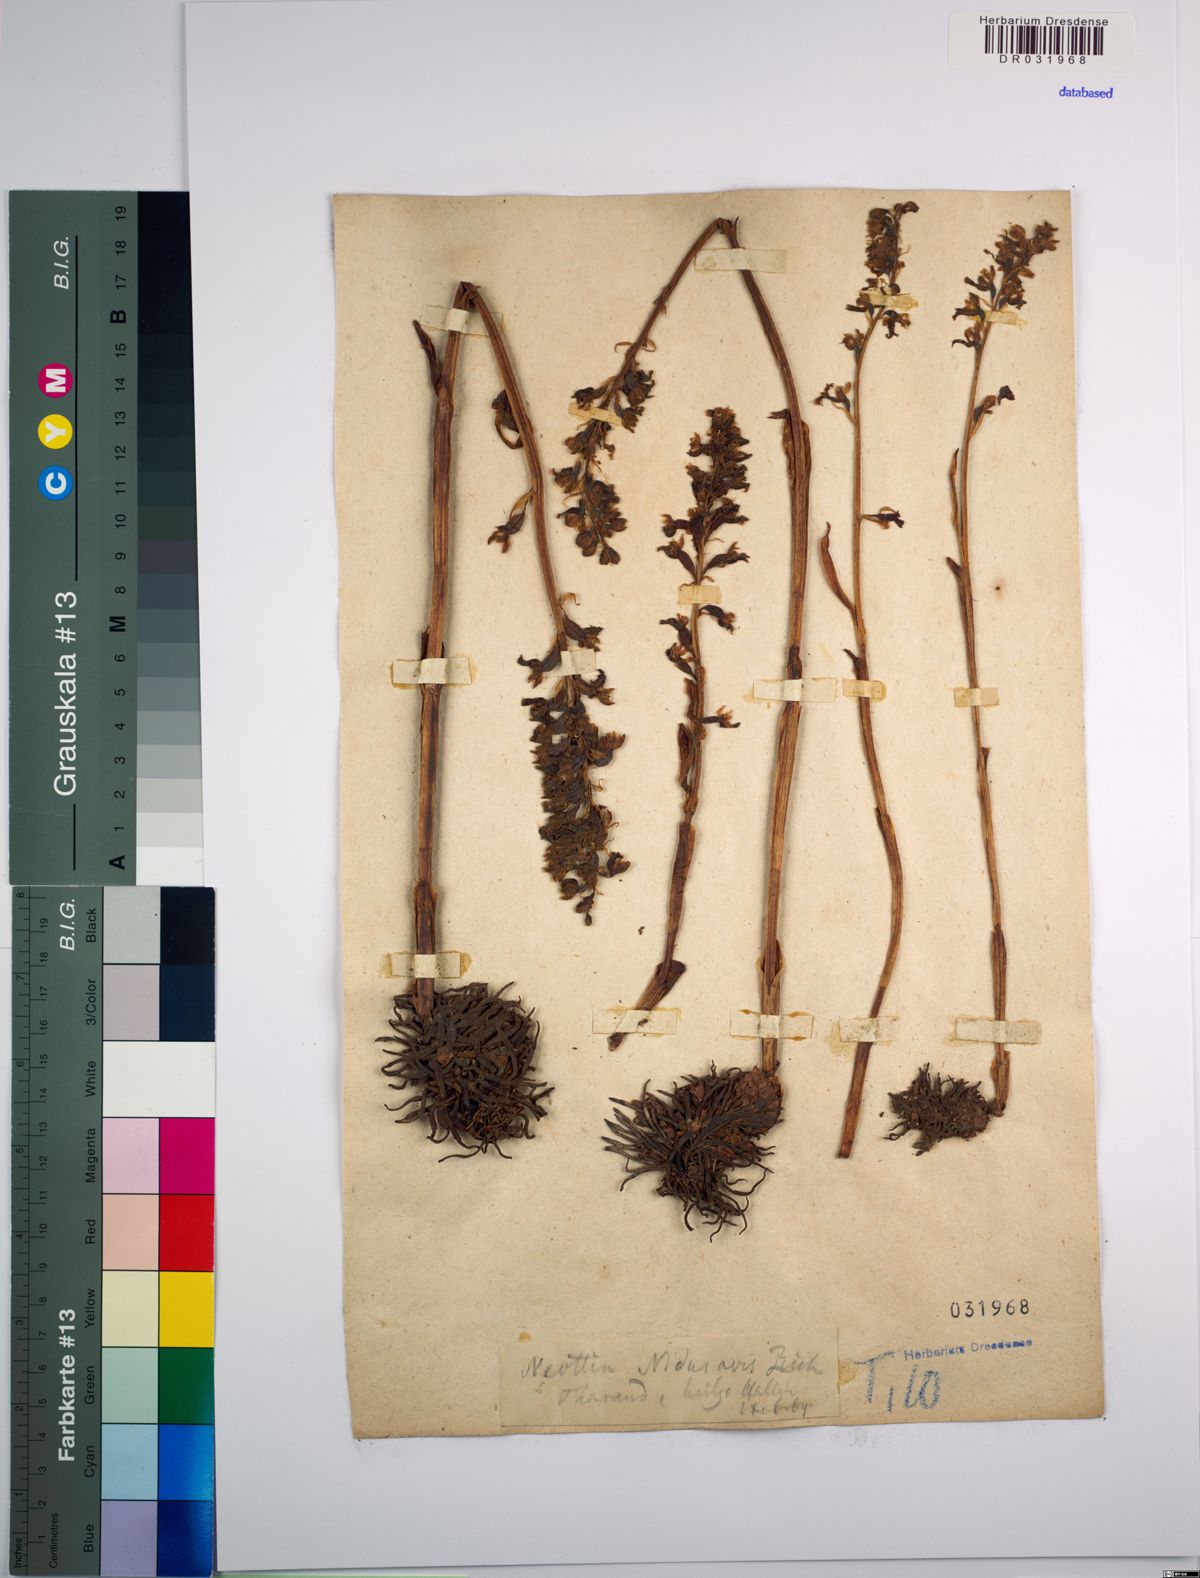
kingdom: Plantae
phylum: Tracheophyta
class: Liliopsida
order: Asparagales
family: Orchidaceae
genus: Neottia
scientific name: Neottia nidus-avis
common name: Bird's-nest orchid
